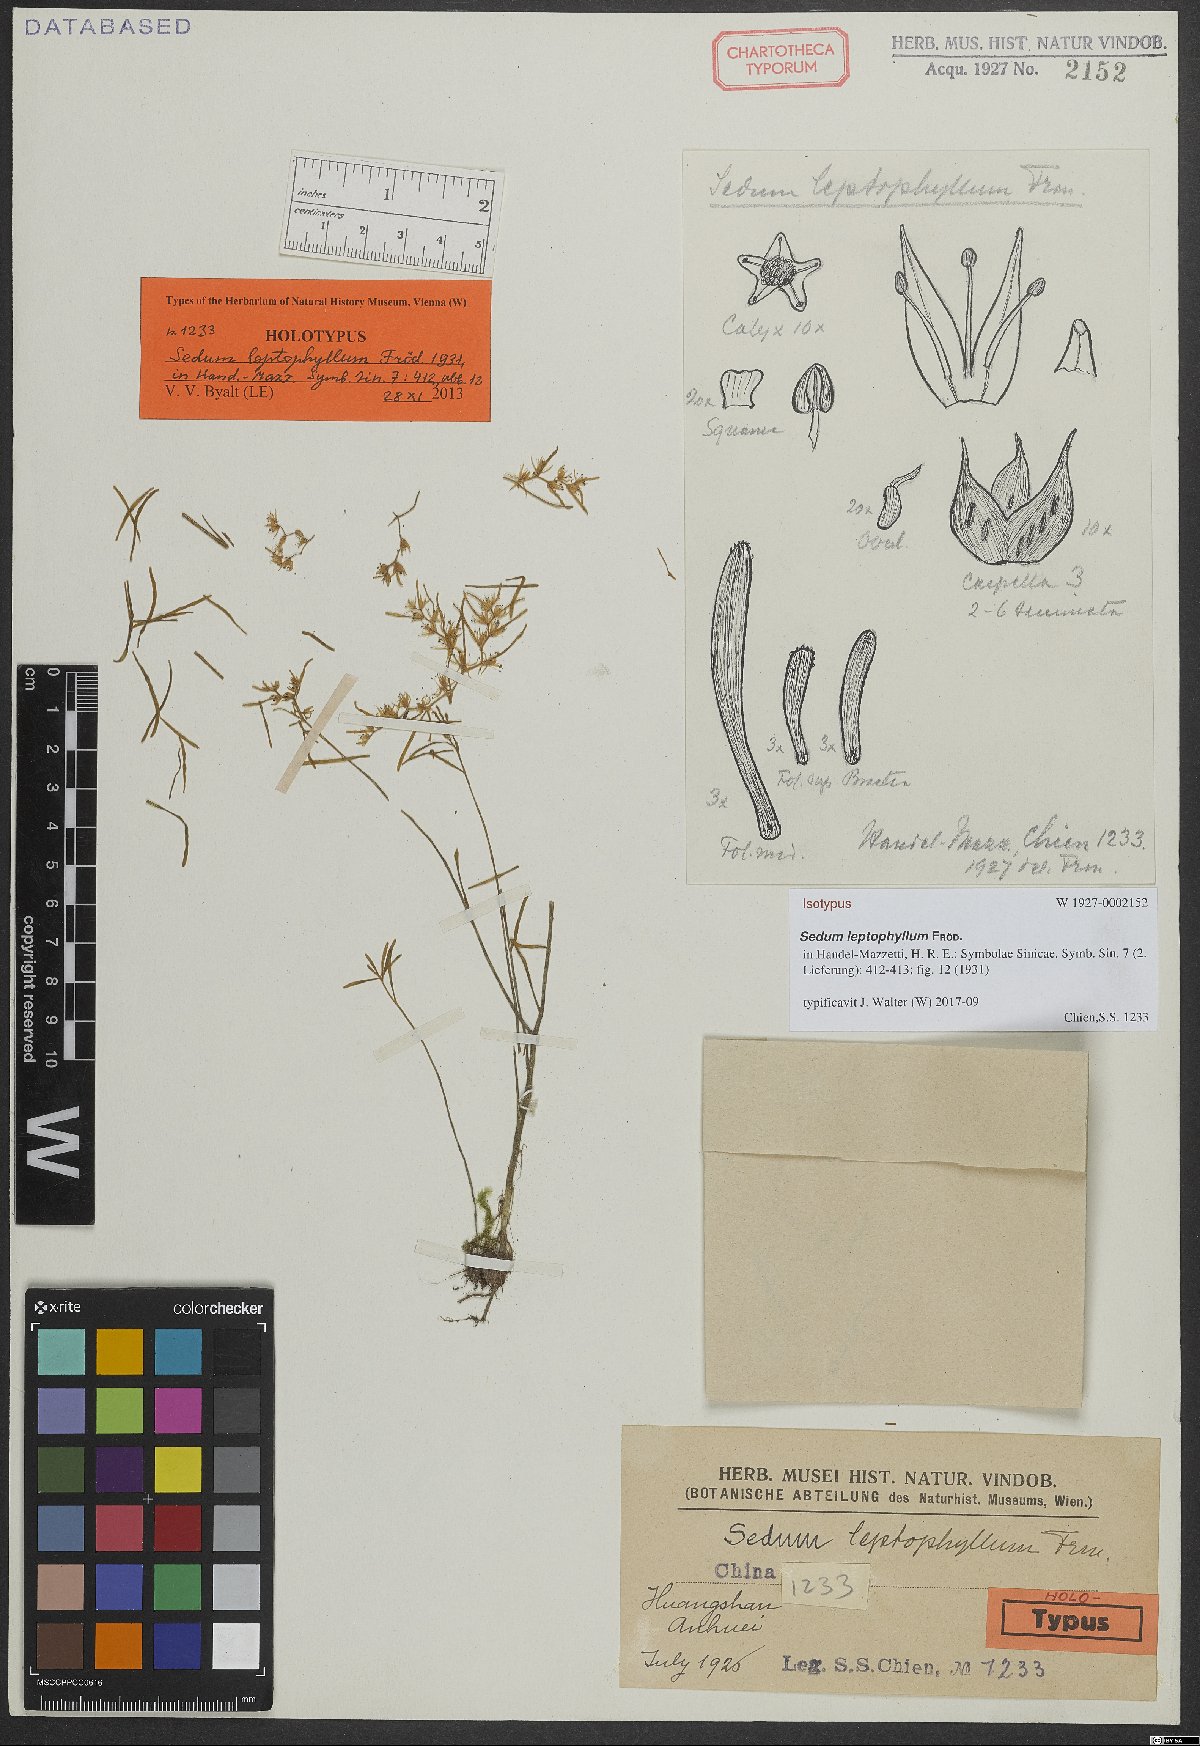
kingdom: Plantae
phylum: Tracheophyta
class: Magnoliopsida
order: Saxifragales
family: Crassulaceae
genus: Sedum
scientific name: Sedum leptophyllum
